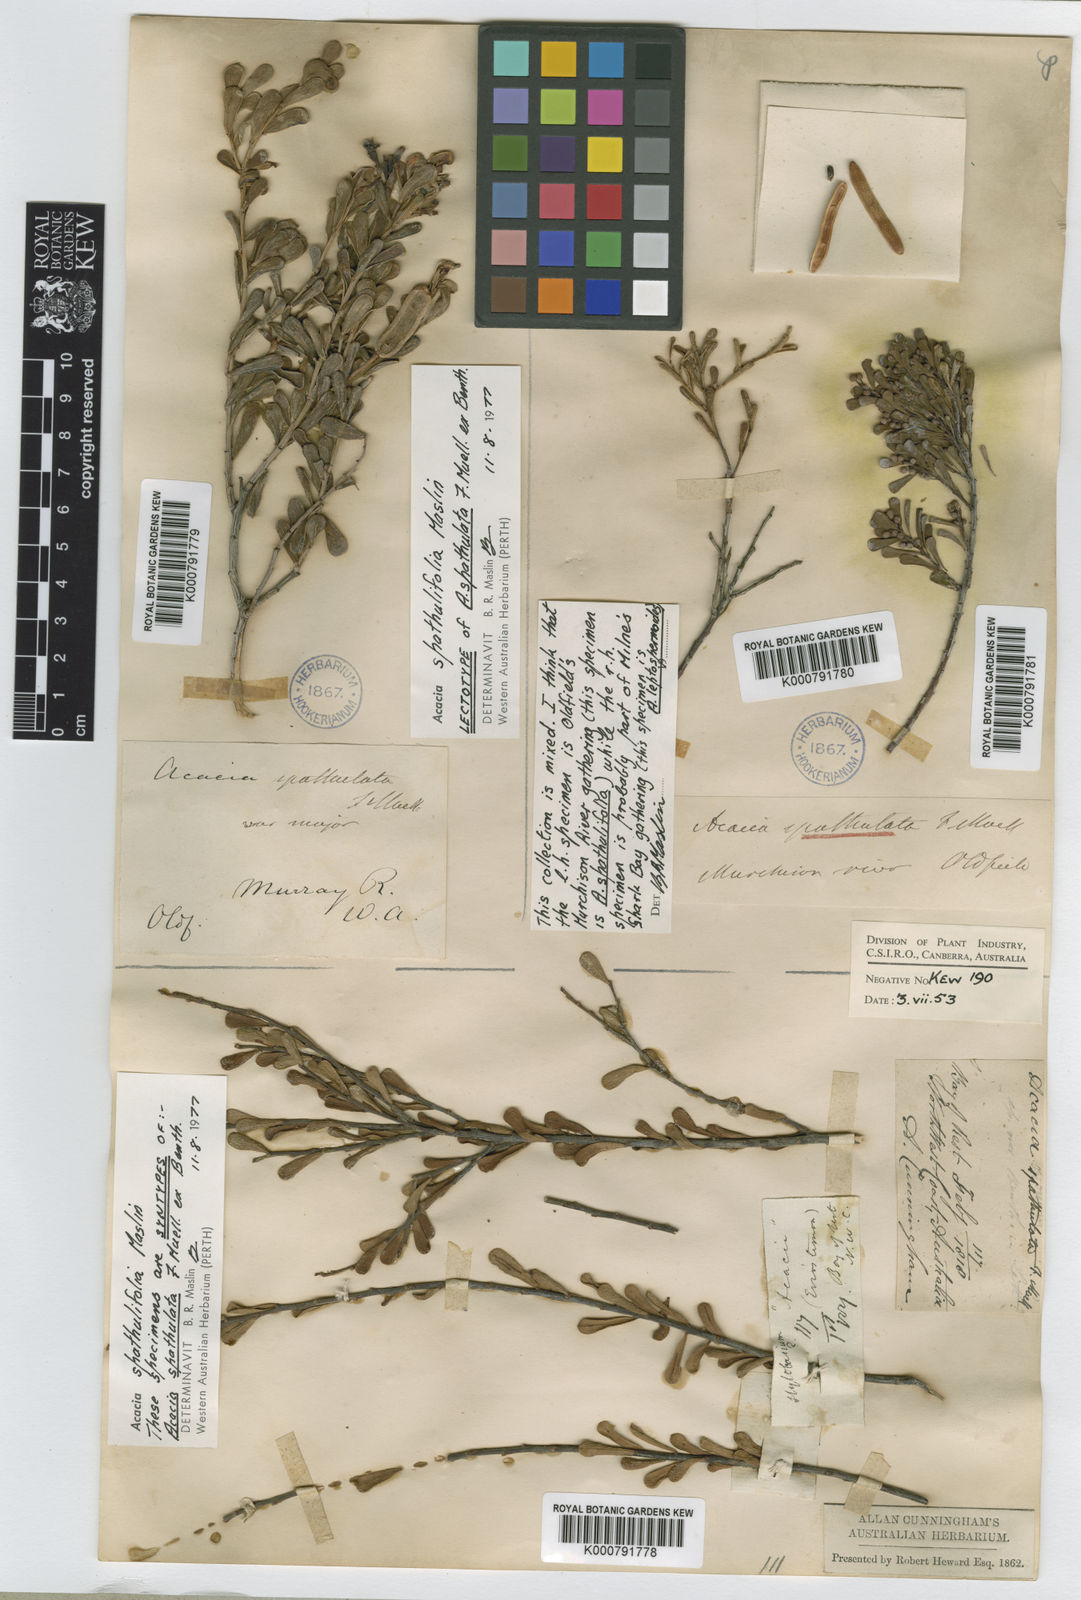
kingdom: Plantae
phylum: Tracheophyta
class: Magnoliopsida
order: Fabales
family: Fabaceae
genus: Acacia
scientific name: Acacia spathulifolia
